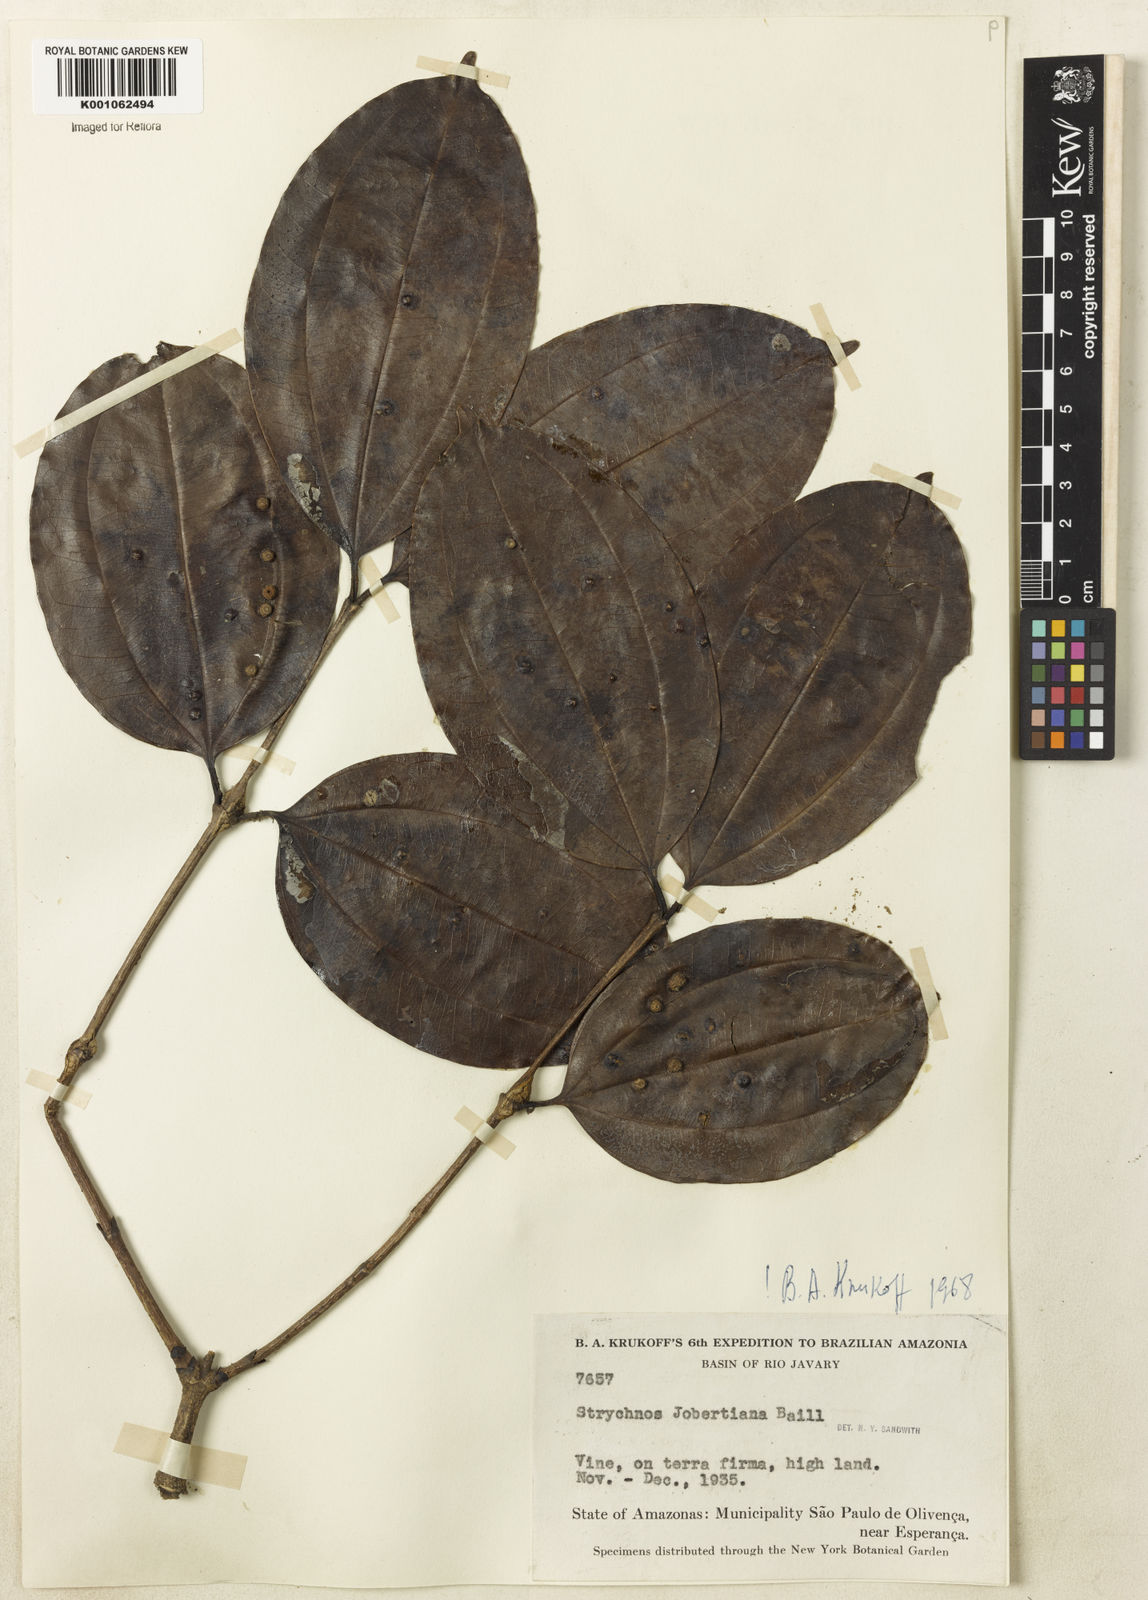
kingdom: Plantae
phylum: Tracheophyta
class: Magnoliopsida
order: Gentianales
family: Loganiaceae
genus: Strychnos
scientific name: Strychnos jobertiana
